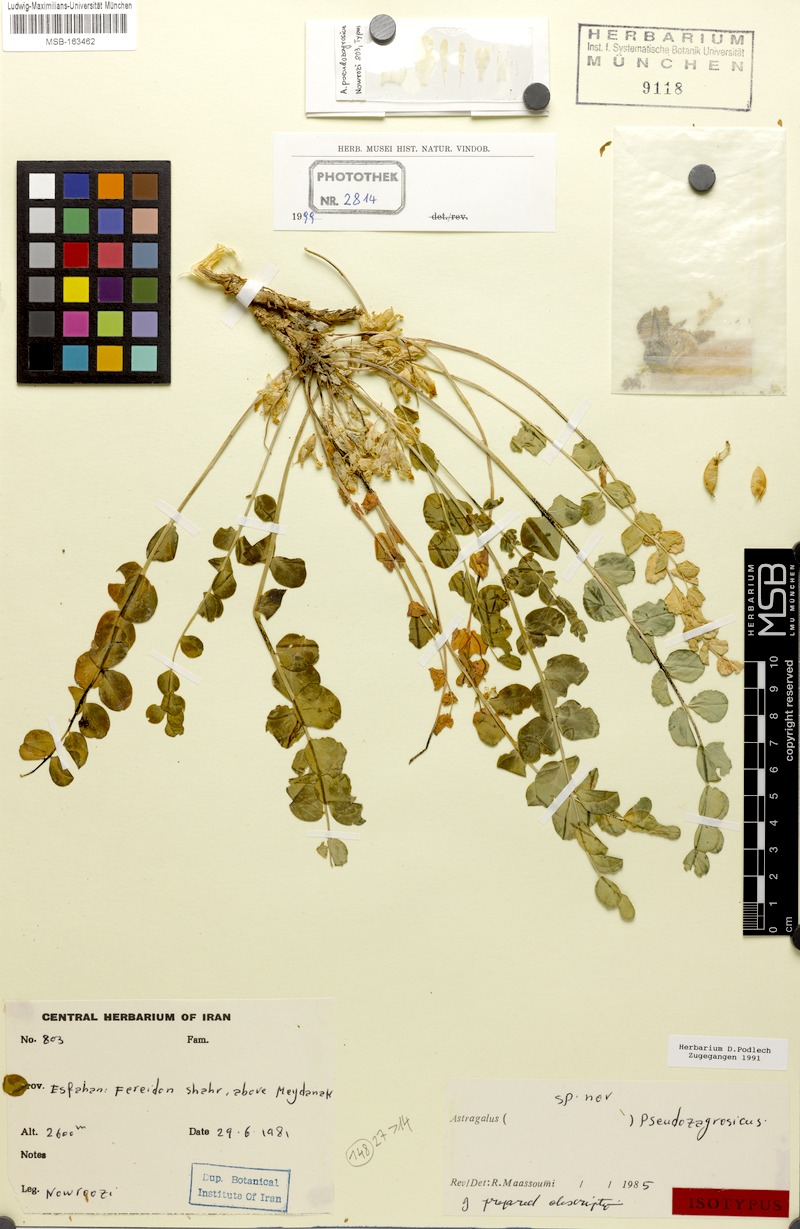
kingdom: Plantae
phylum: Tracheophyta
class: Magnoliopsida
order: Fabales
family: Fabaceae
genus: Astragalus
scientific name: Astragalus pseudozagrosicus
